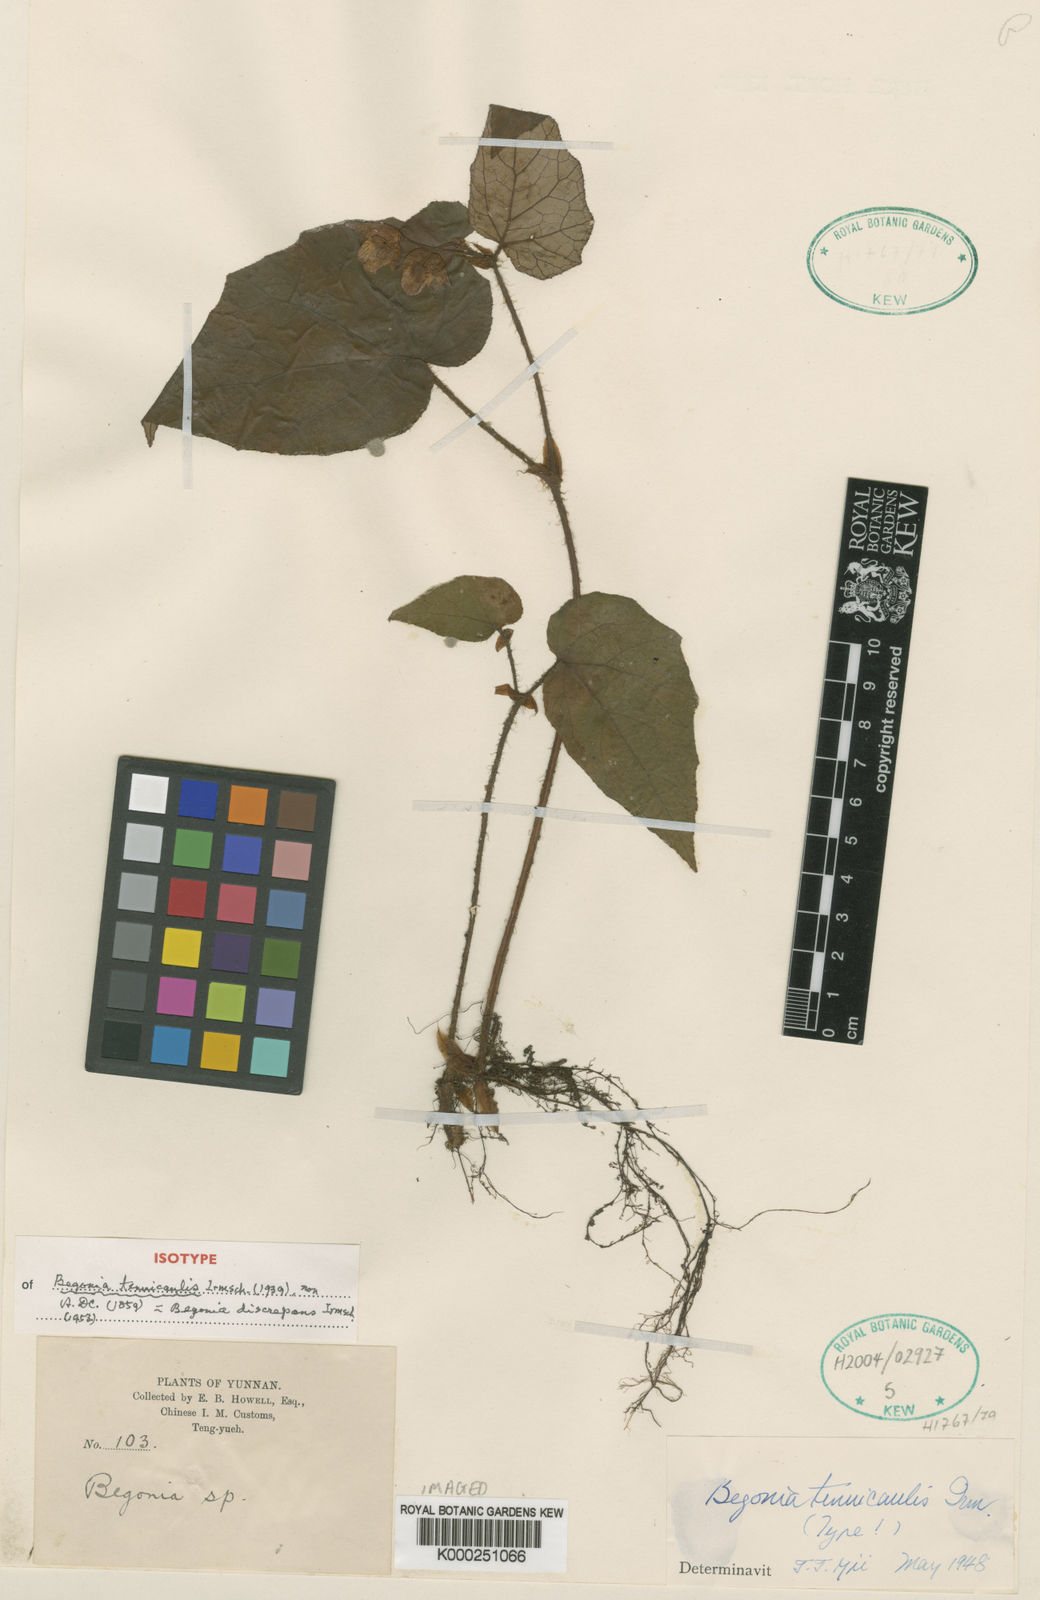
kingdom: Plantae
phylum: Tracheophyta
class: Magnoliopsida
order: Cucurbitales
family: Begoniaceae
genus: Begonia
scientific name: Begonia discrepans
